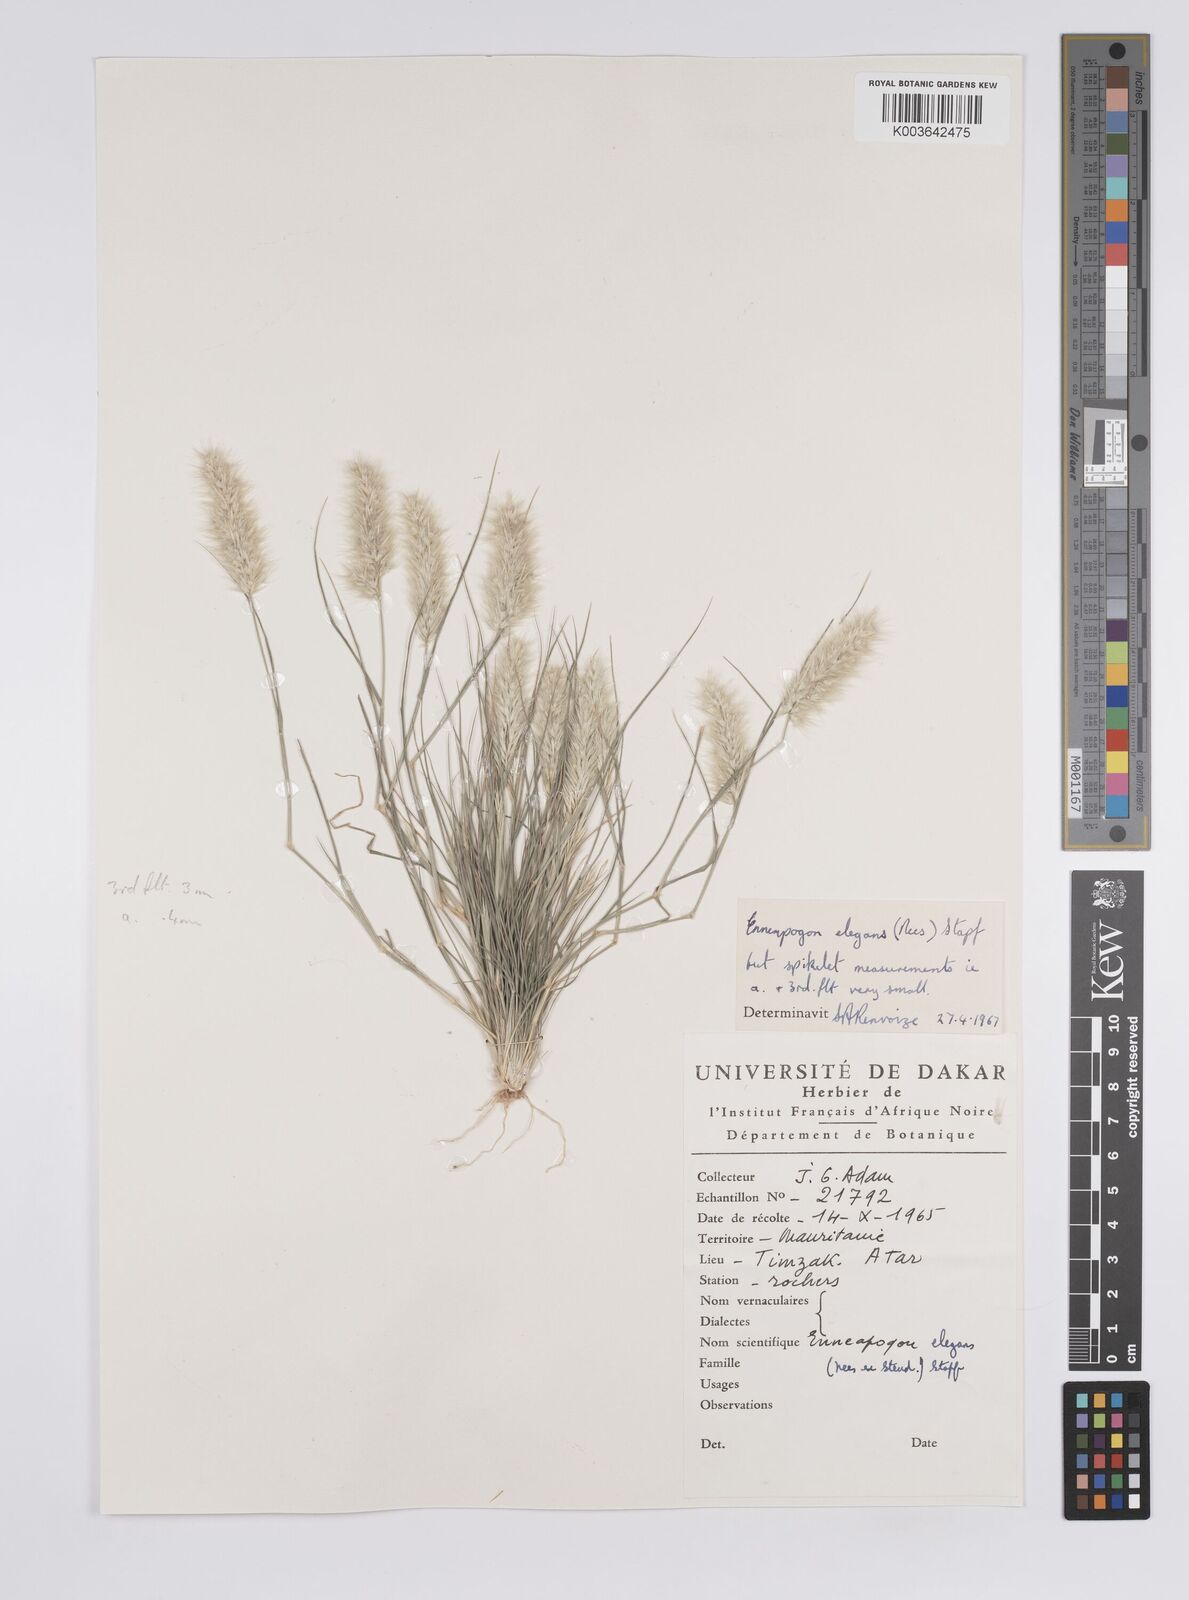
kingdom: Plantae
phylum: Tracheophyta
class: Liliopsida
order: Poales
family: Poaceae
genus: Enneapogon
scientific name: Enneapogon persicus
